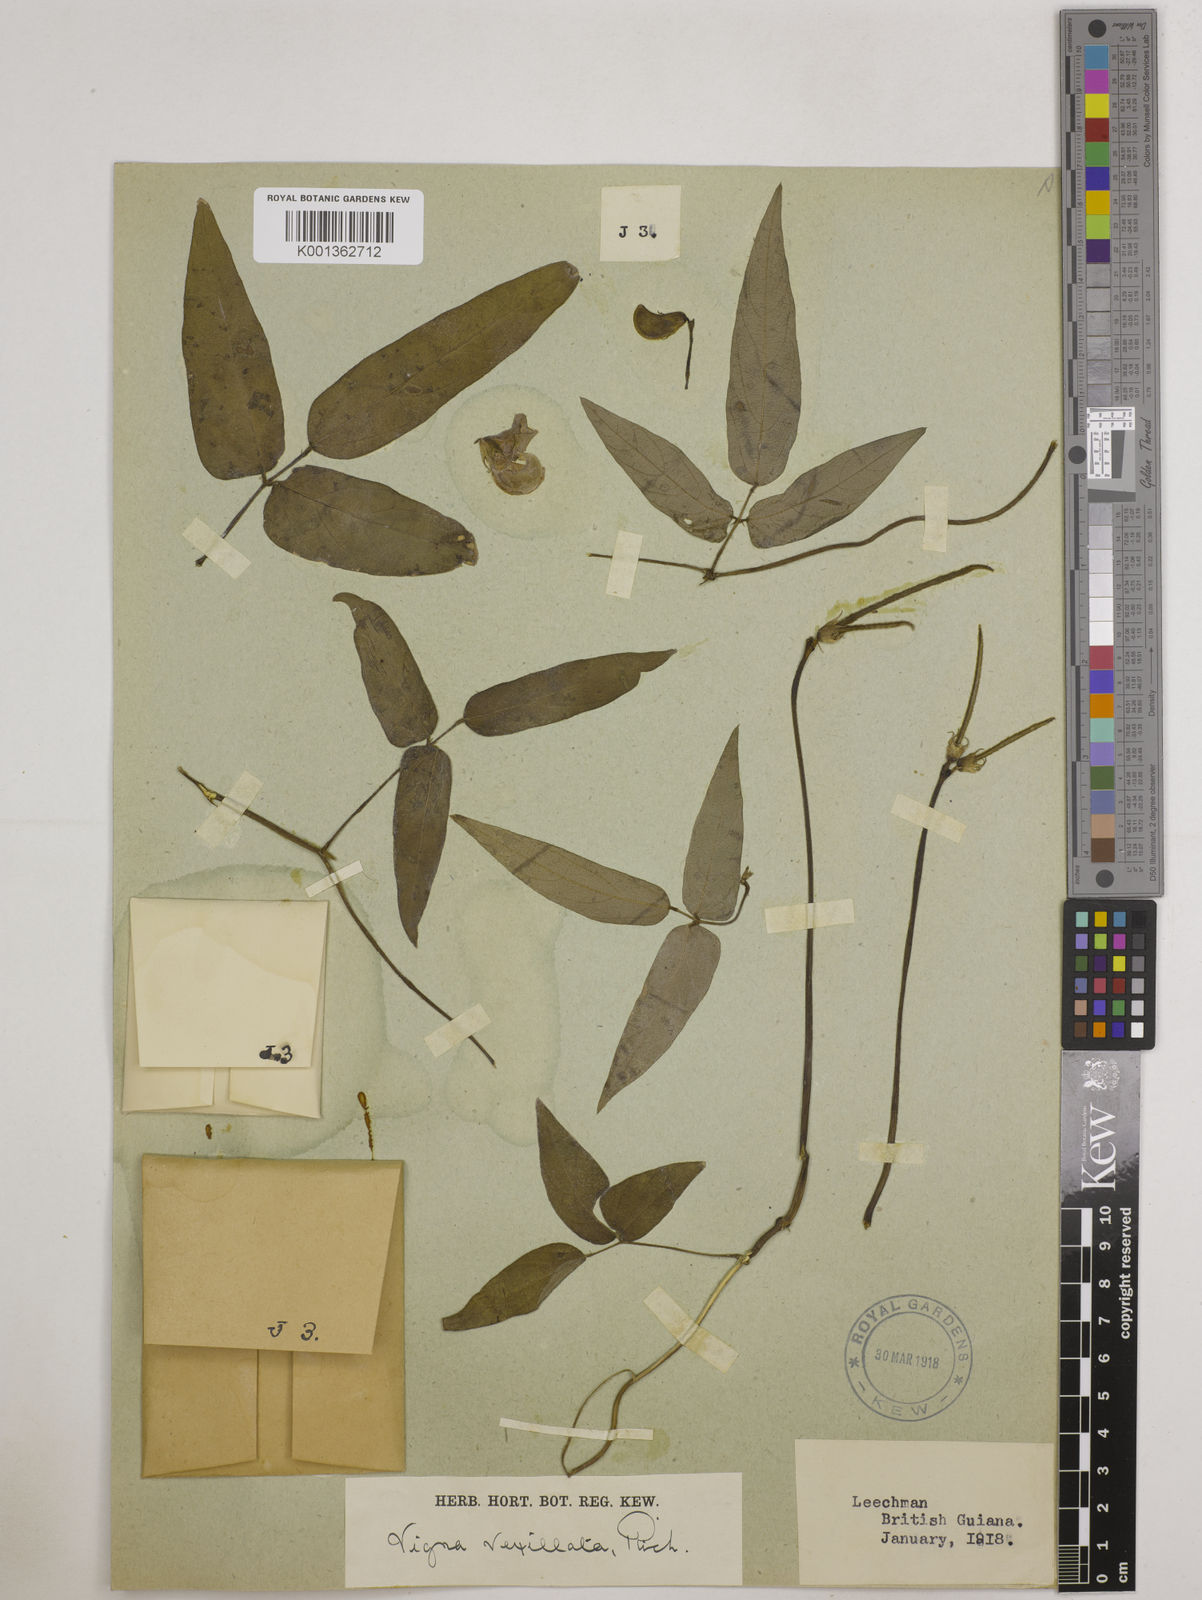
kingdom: Plantae
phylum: Tracheophyta
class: Magnoliopsida
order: Fabales
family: Fabaceae
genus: Vigna
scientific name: Vigna vexillata
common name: Zombi pea
